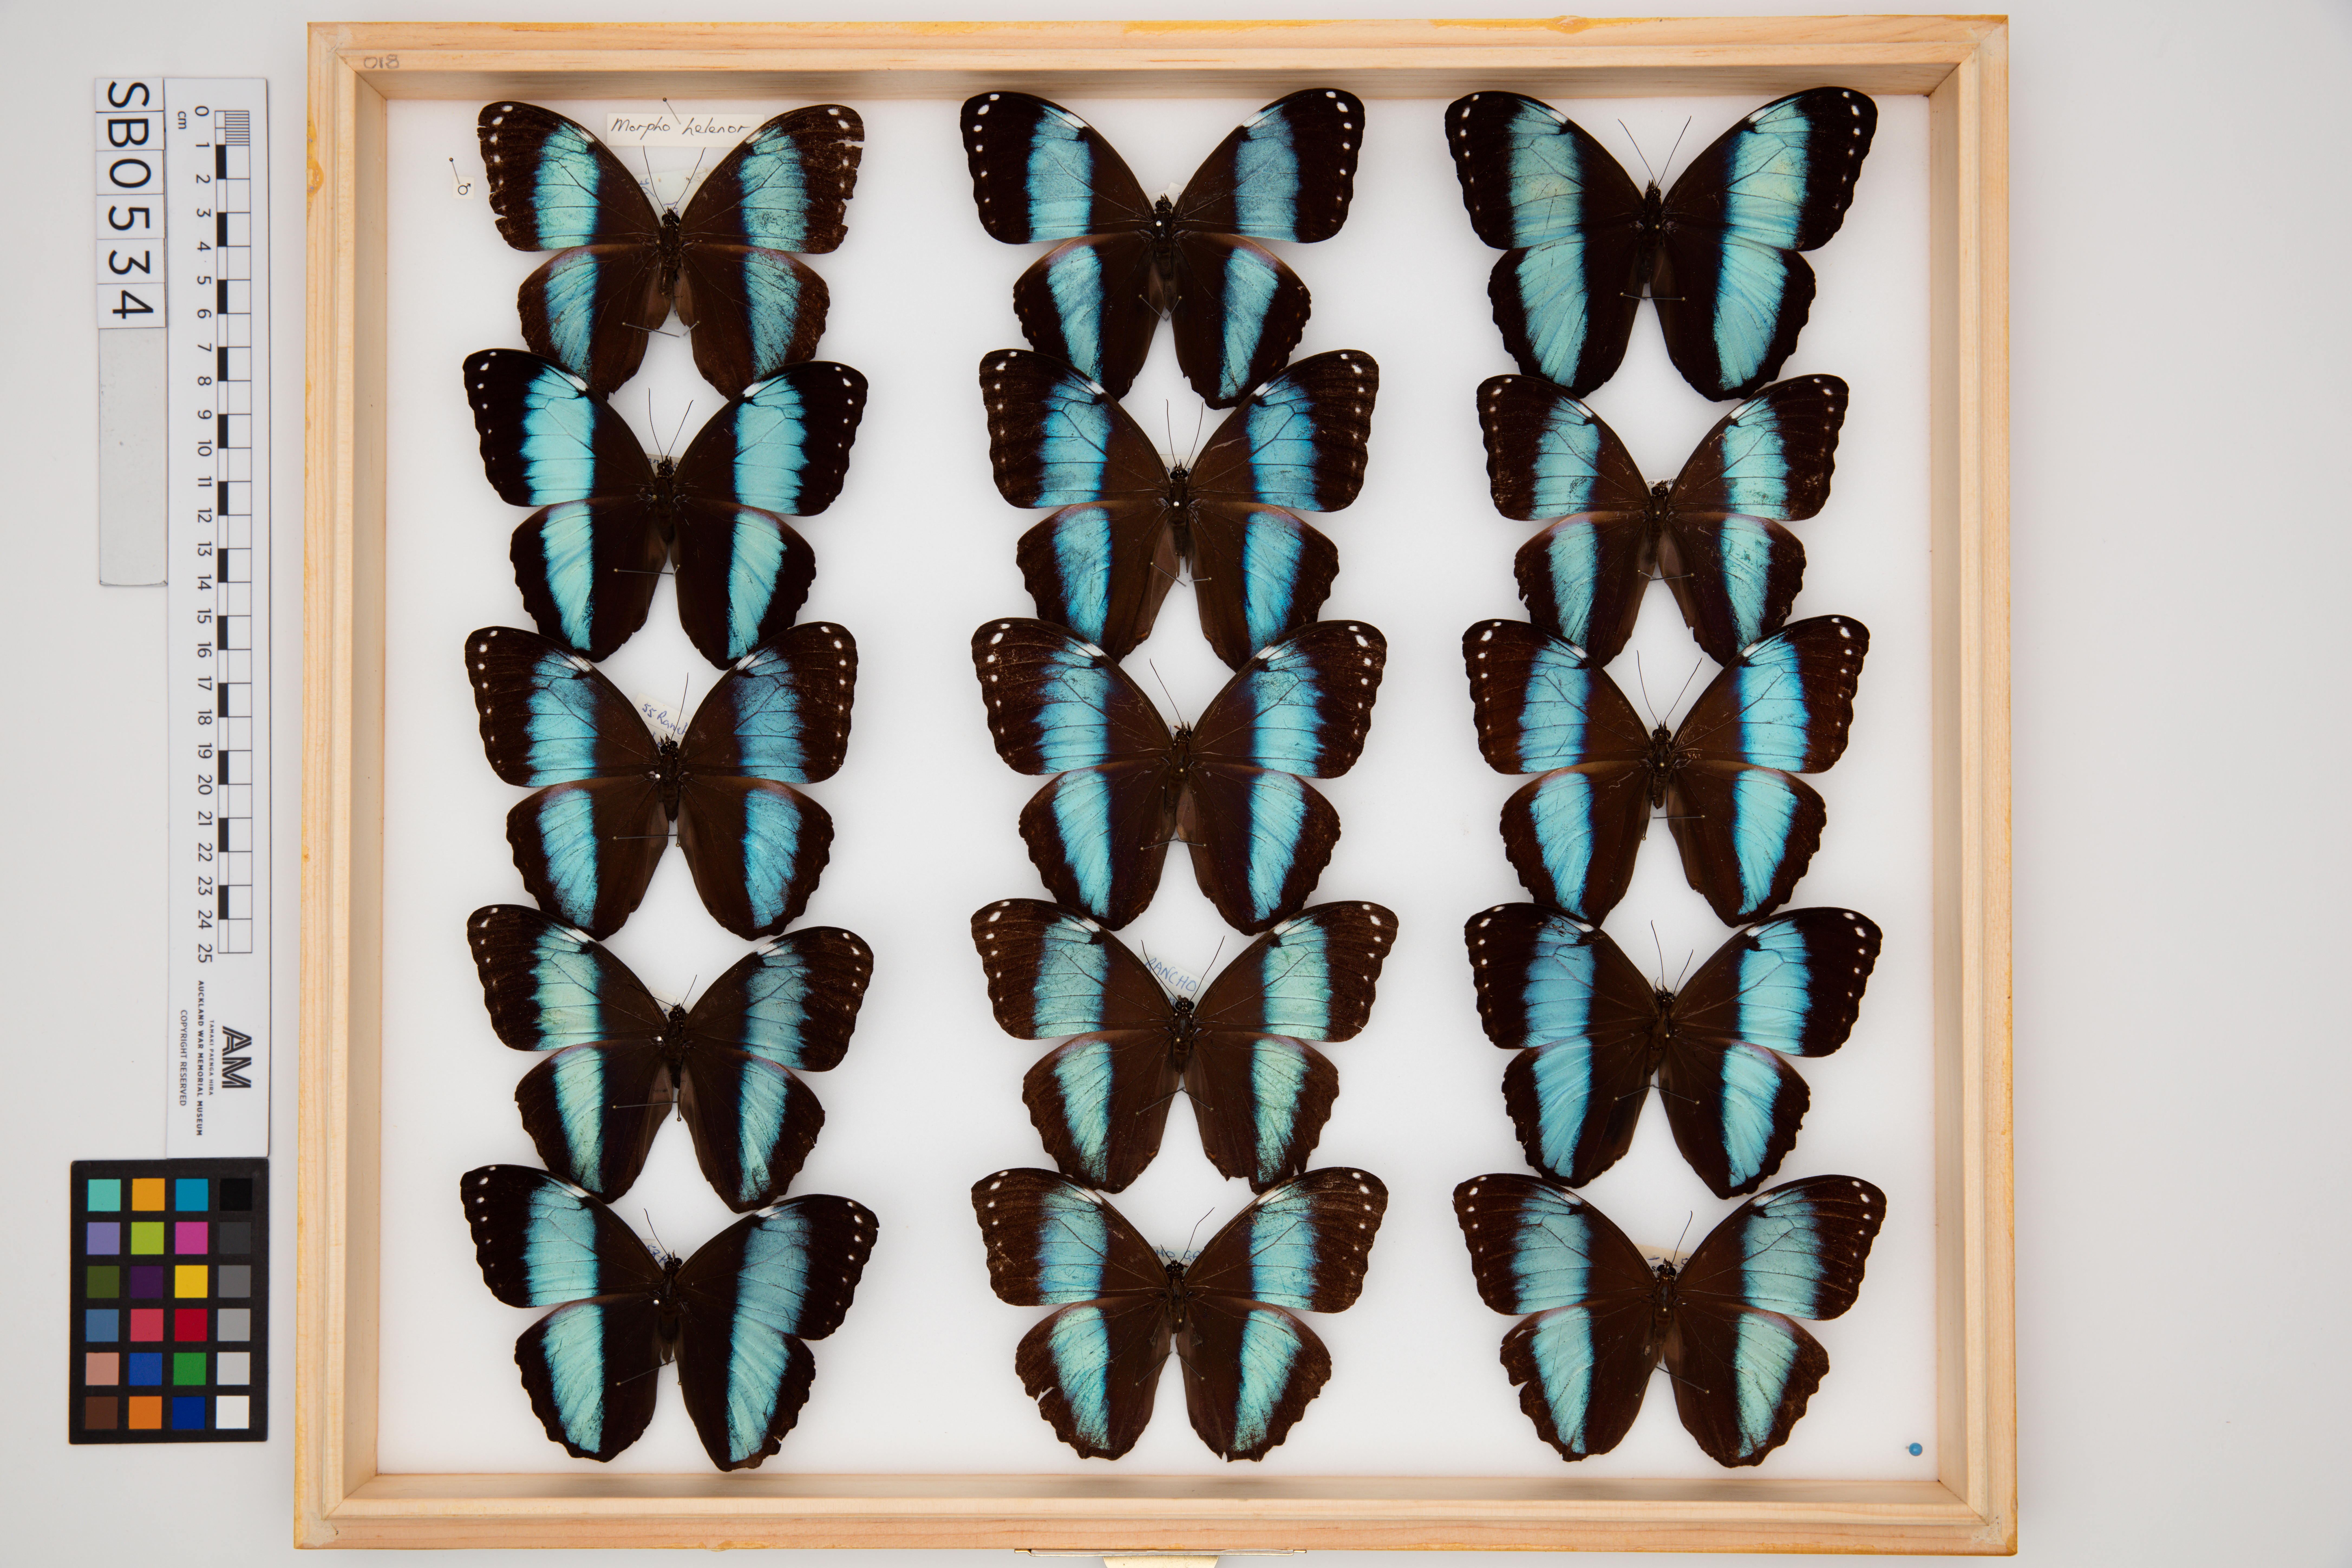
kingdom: Animalia
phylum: Arthropoda
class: Insecta
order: Lepidoptera
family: Nymphalidae
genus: Morpho
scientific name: Morpho helenor
